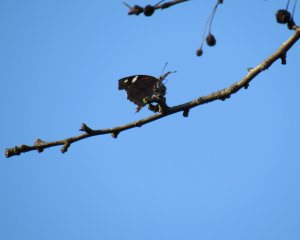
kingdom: Animalia
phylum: Arthropoda
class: Insecta
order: Lepidoptera
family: Nymphalidae
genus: Libytheana
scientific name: Libytheana carinenta
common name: American Snout
